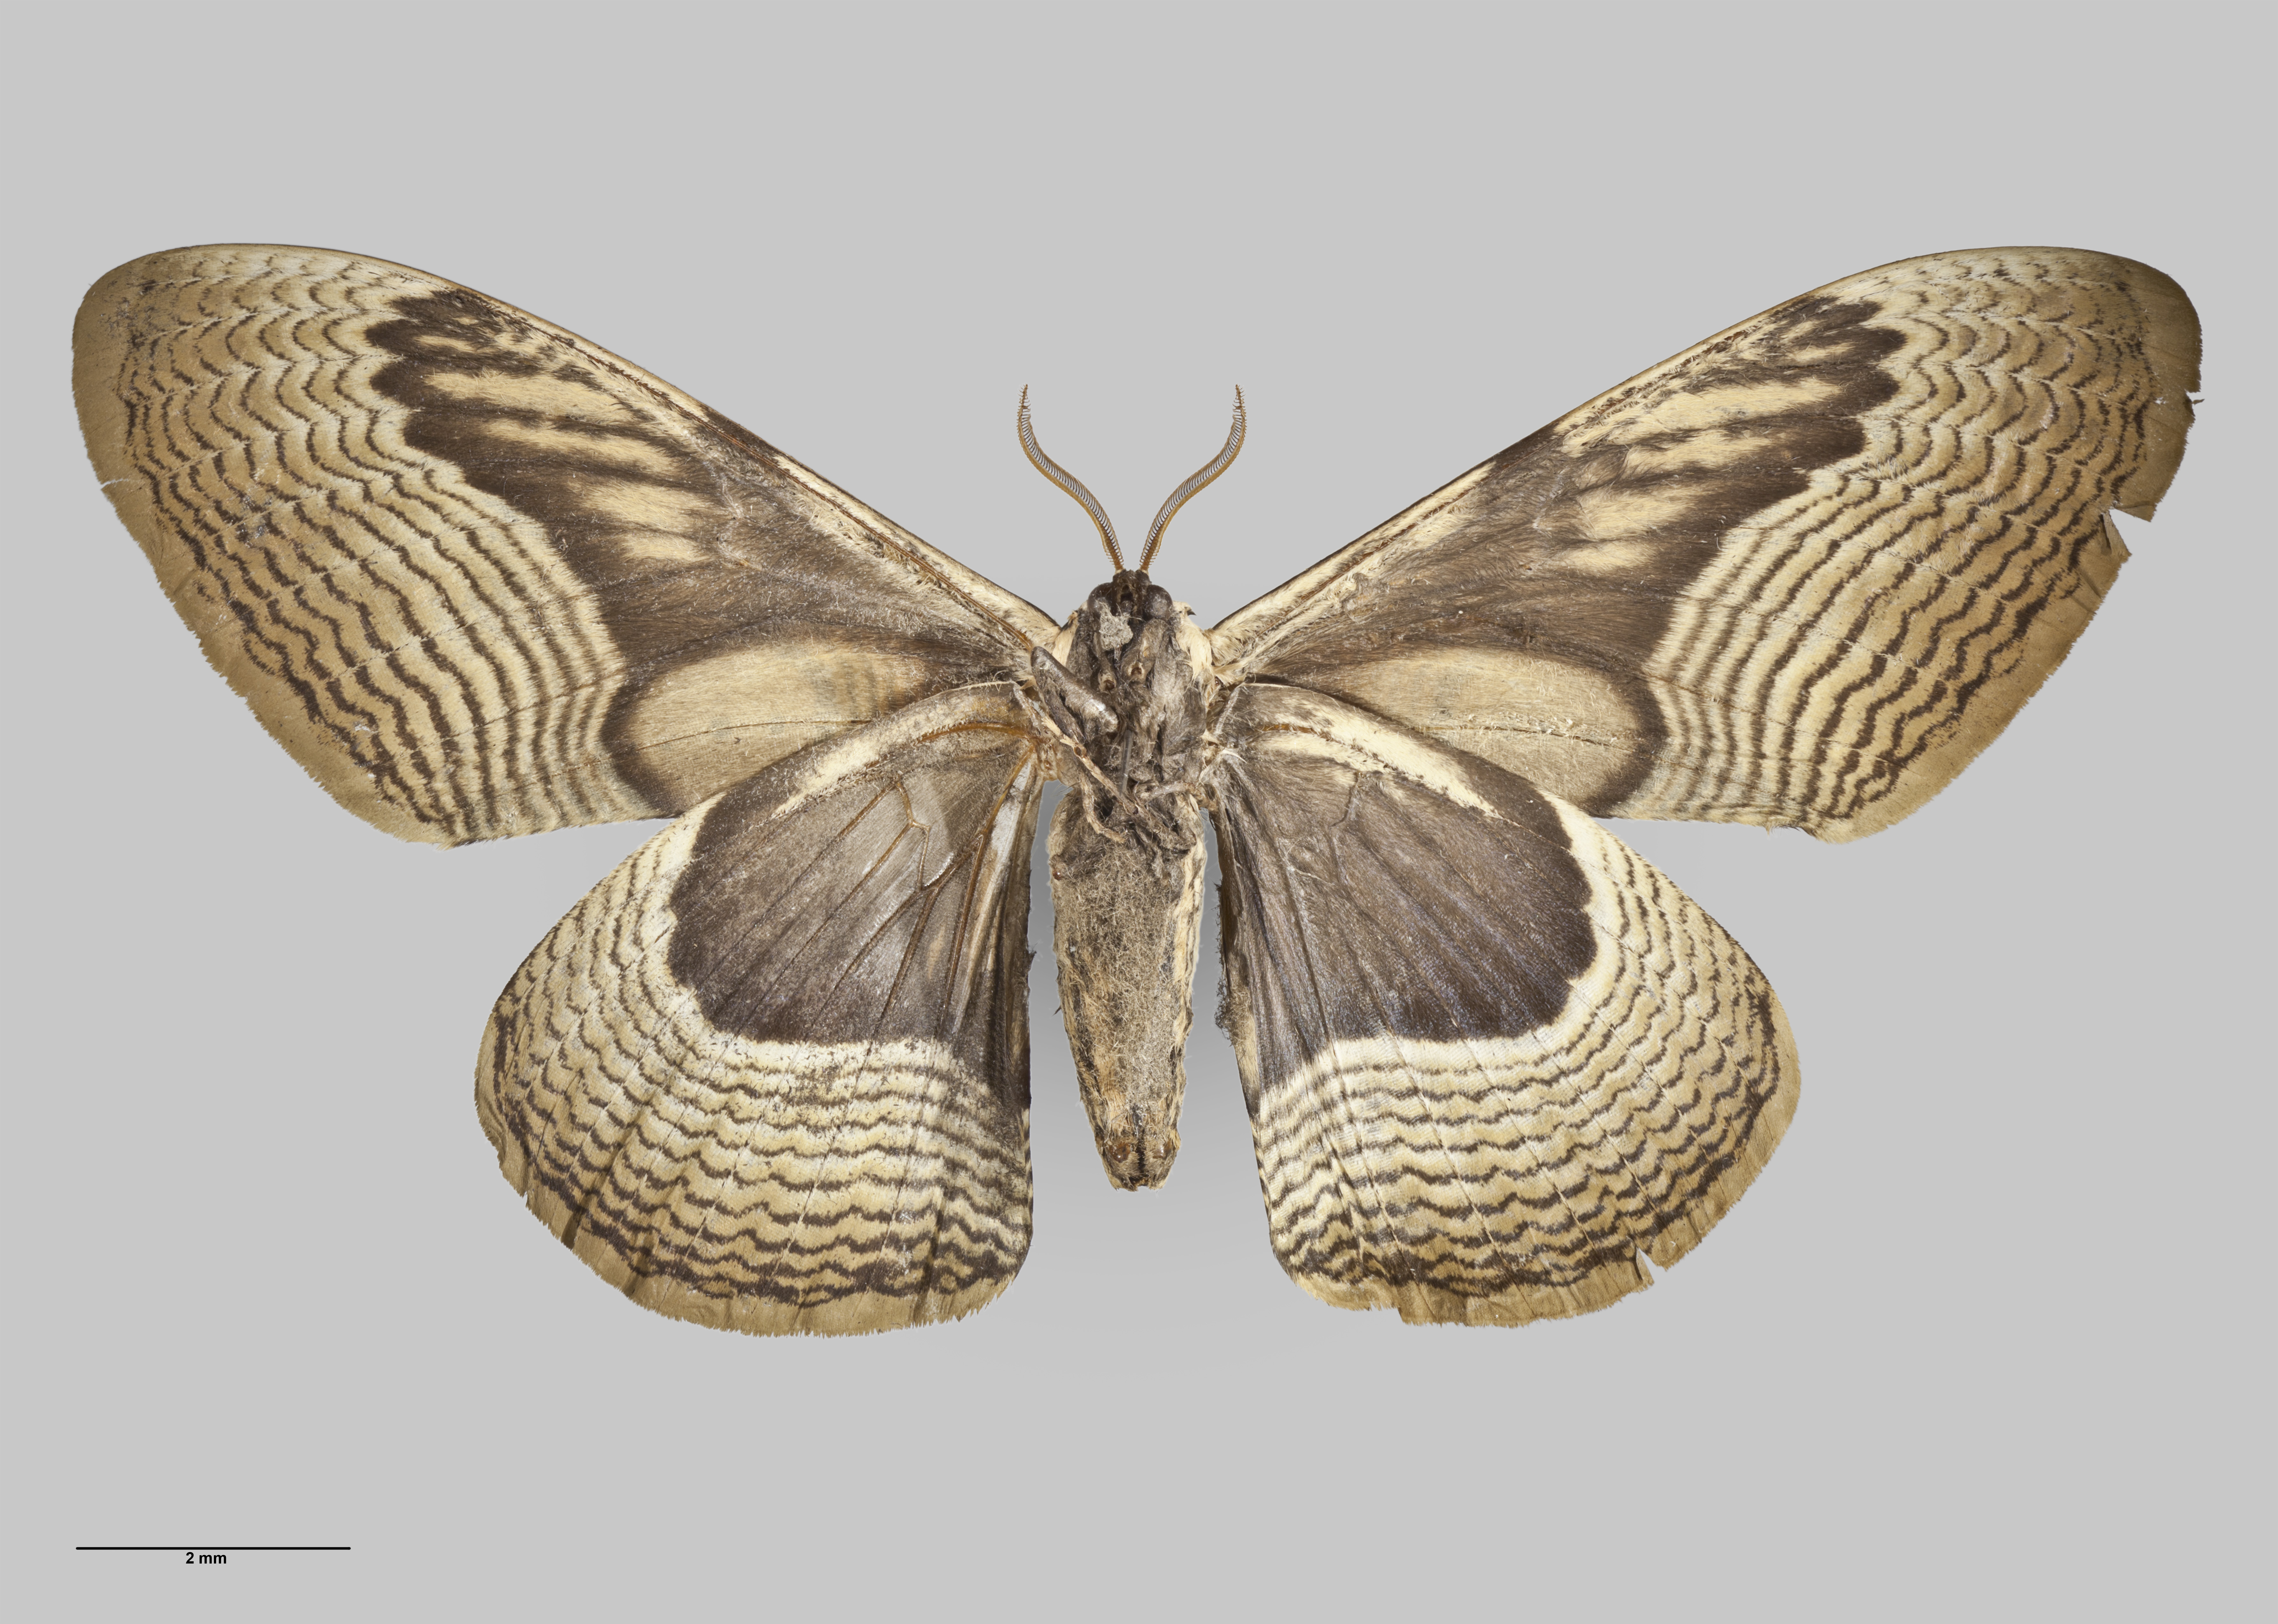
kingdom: Animalia
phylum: Arthropoda
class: Insecta
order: Lepidoptera
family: Brahmaeidae
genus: Brahmaea
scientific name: Brahmaea wallichii
